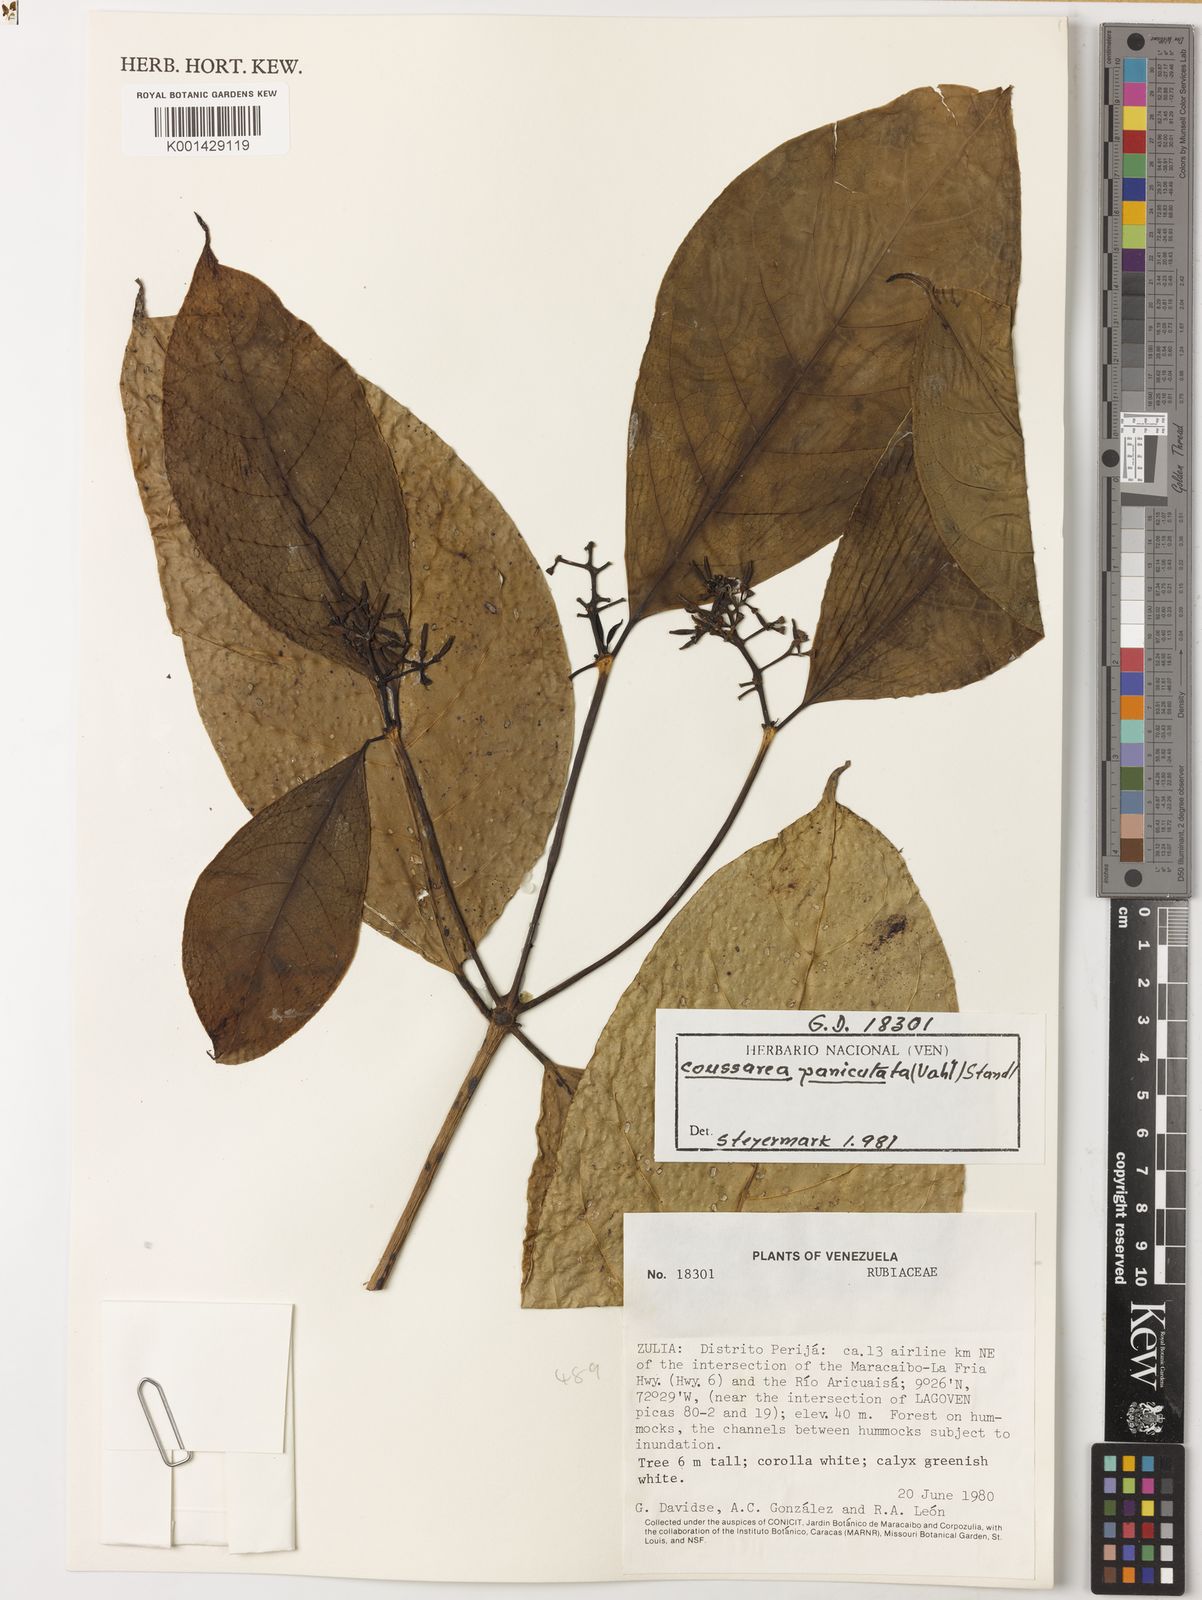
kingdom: Plantae
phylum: Tracheophyta
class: Magnoliopsida
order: Gentianales
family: Rubiaceae
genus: Coussarea
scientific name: Coussarea paniculata
